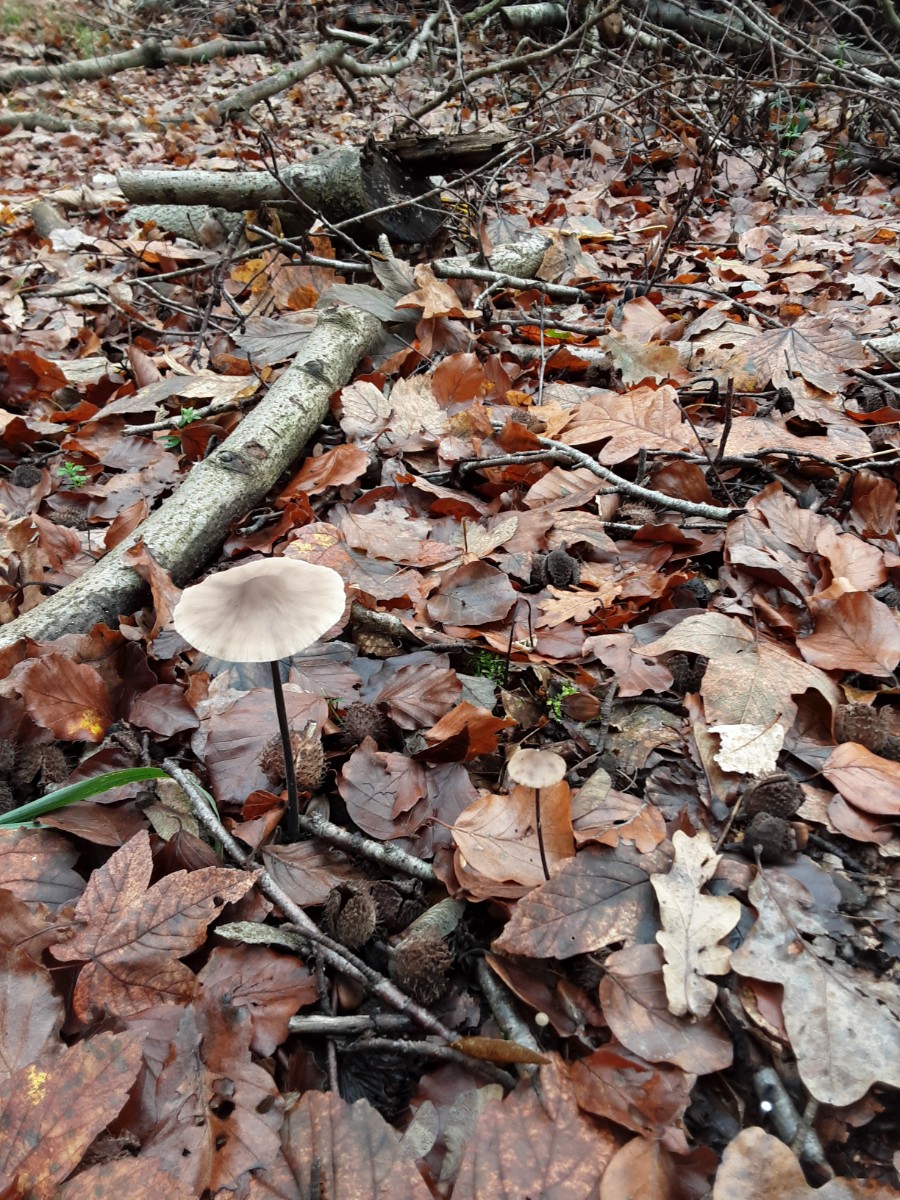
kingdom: Fungi
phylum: Basidiomycota
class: Agaricomycetes
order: Agaricales
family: Omphalotaceae
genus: Mycetinis
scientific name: Mycetinis alliaceus
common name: stor løghat
